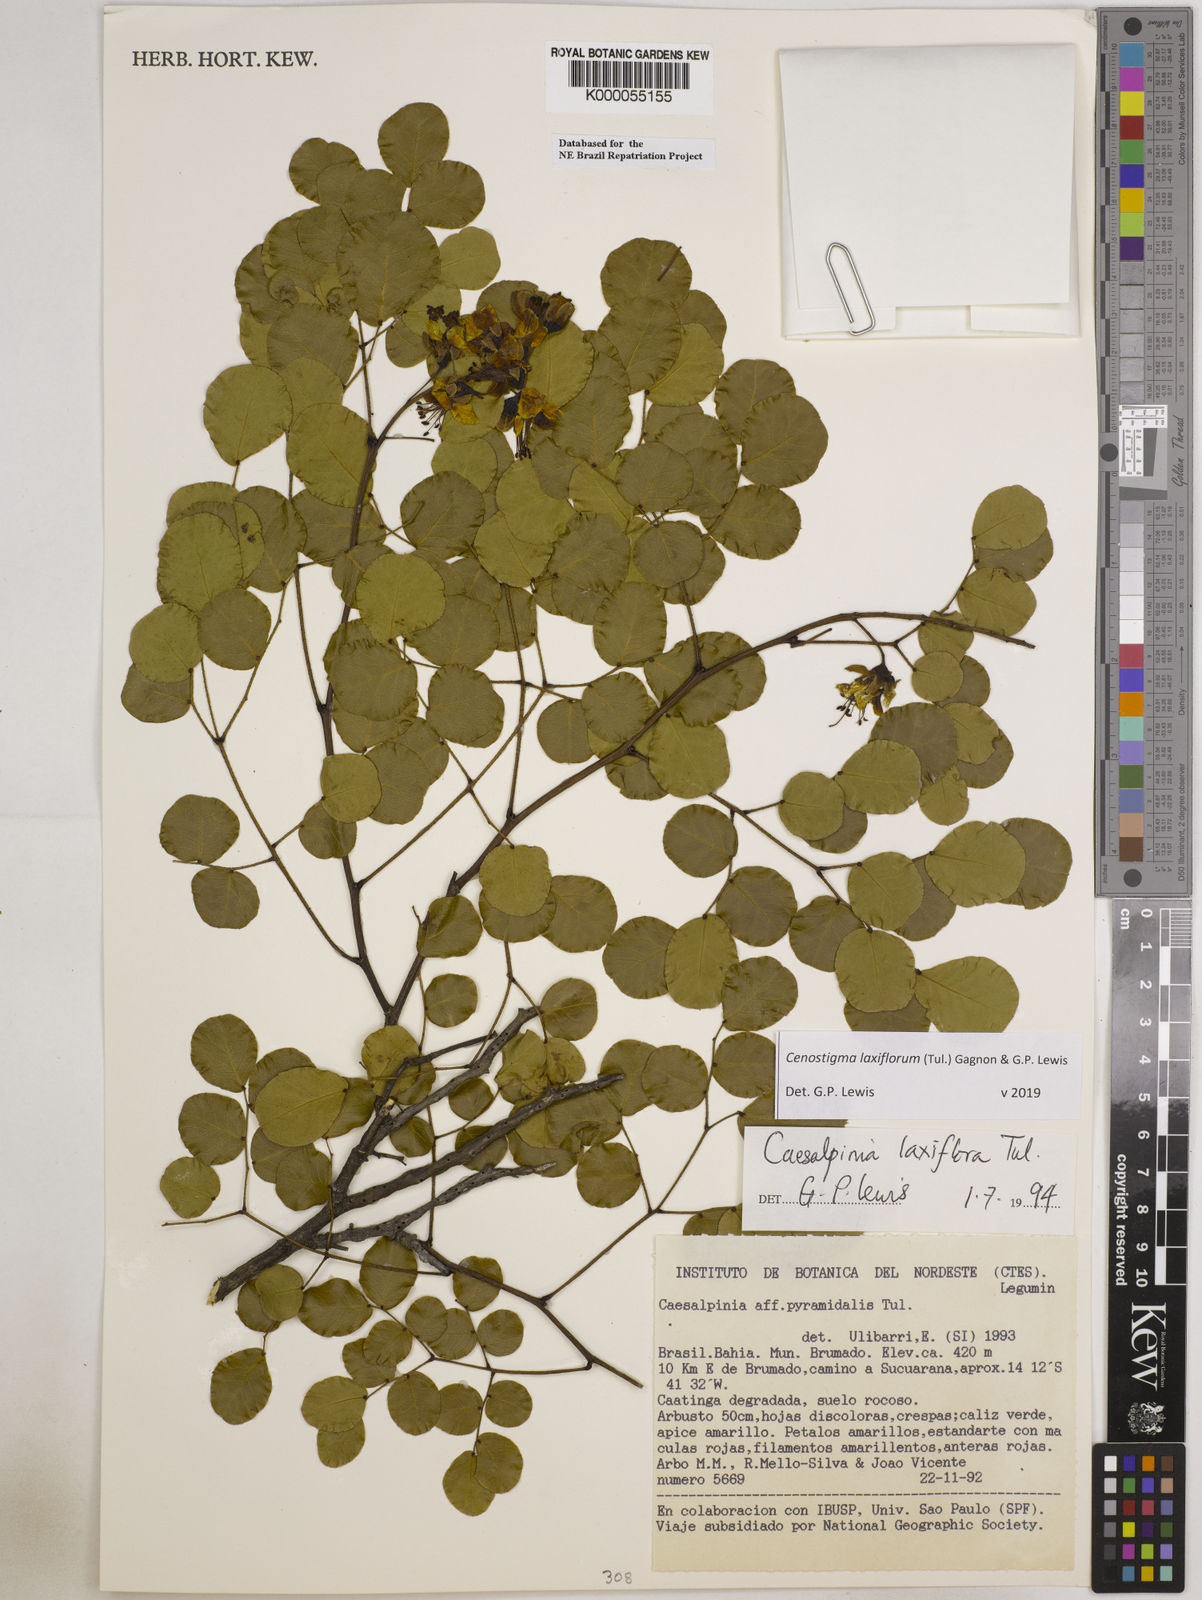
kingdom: Plantae
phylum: Tracheophyta
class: Magnoliopsida
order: Fabales
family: Fabaceae
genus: Cenostigma
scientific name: Cenostigma laxiflorum
